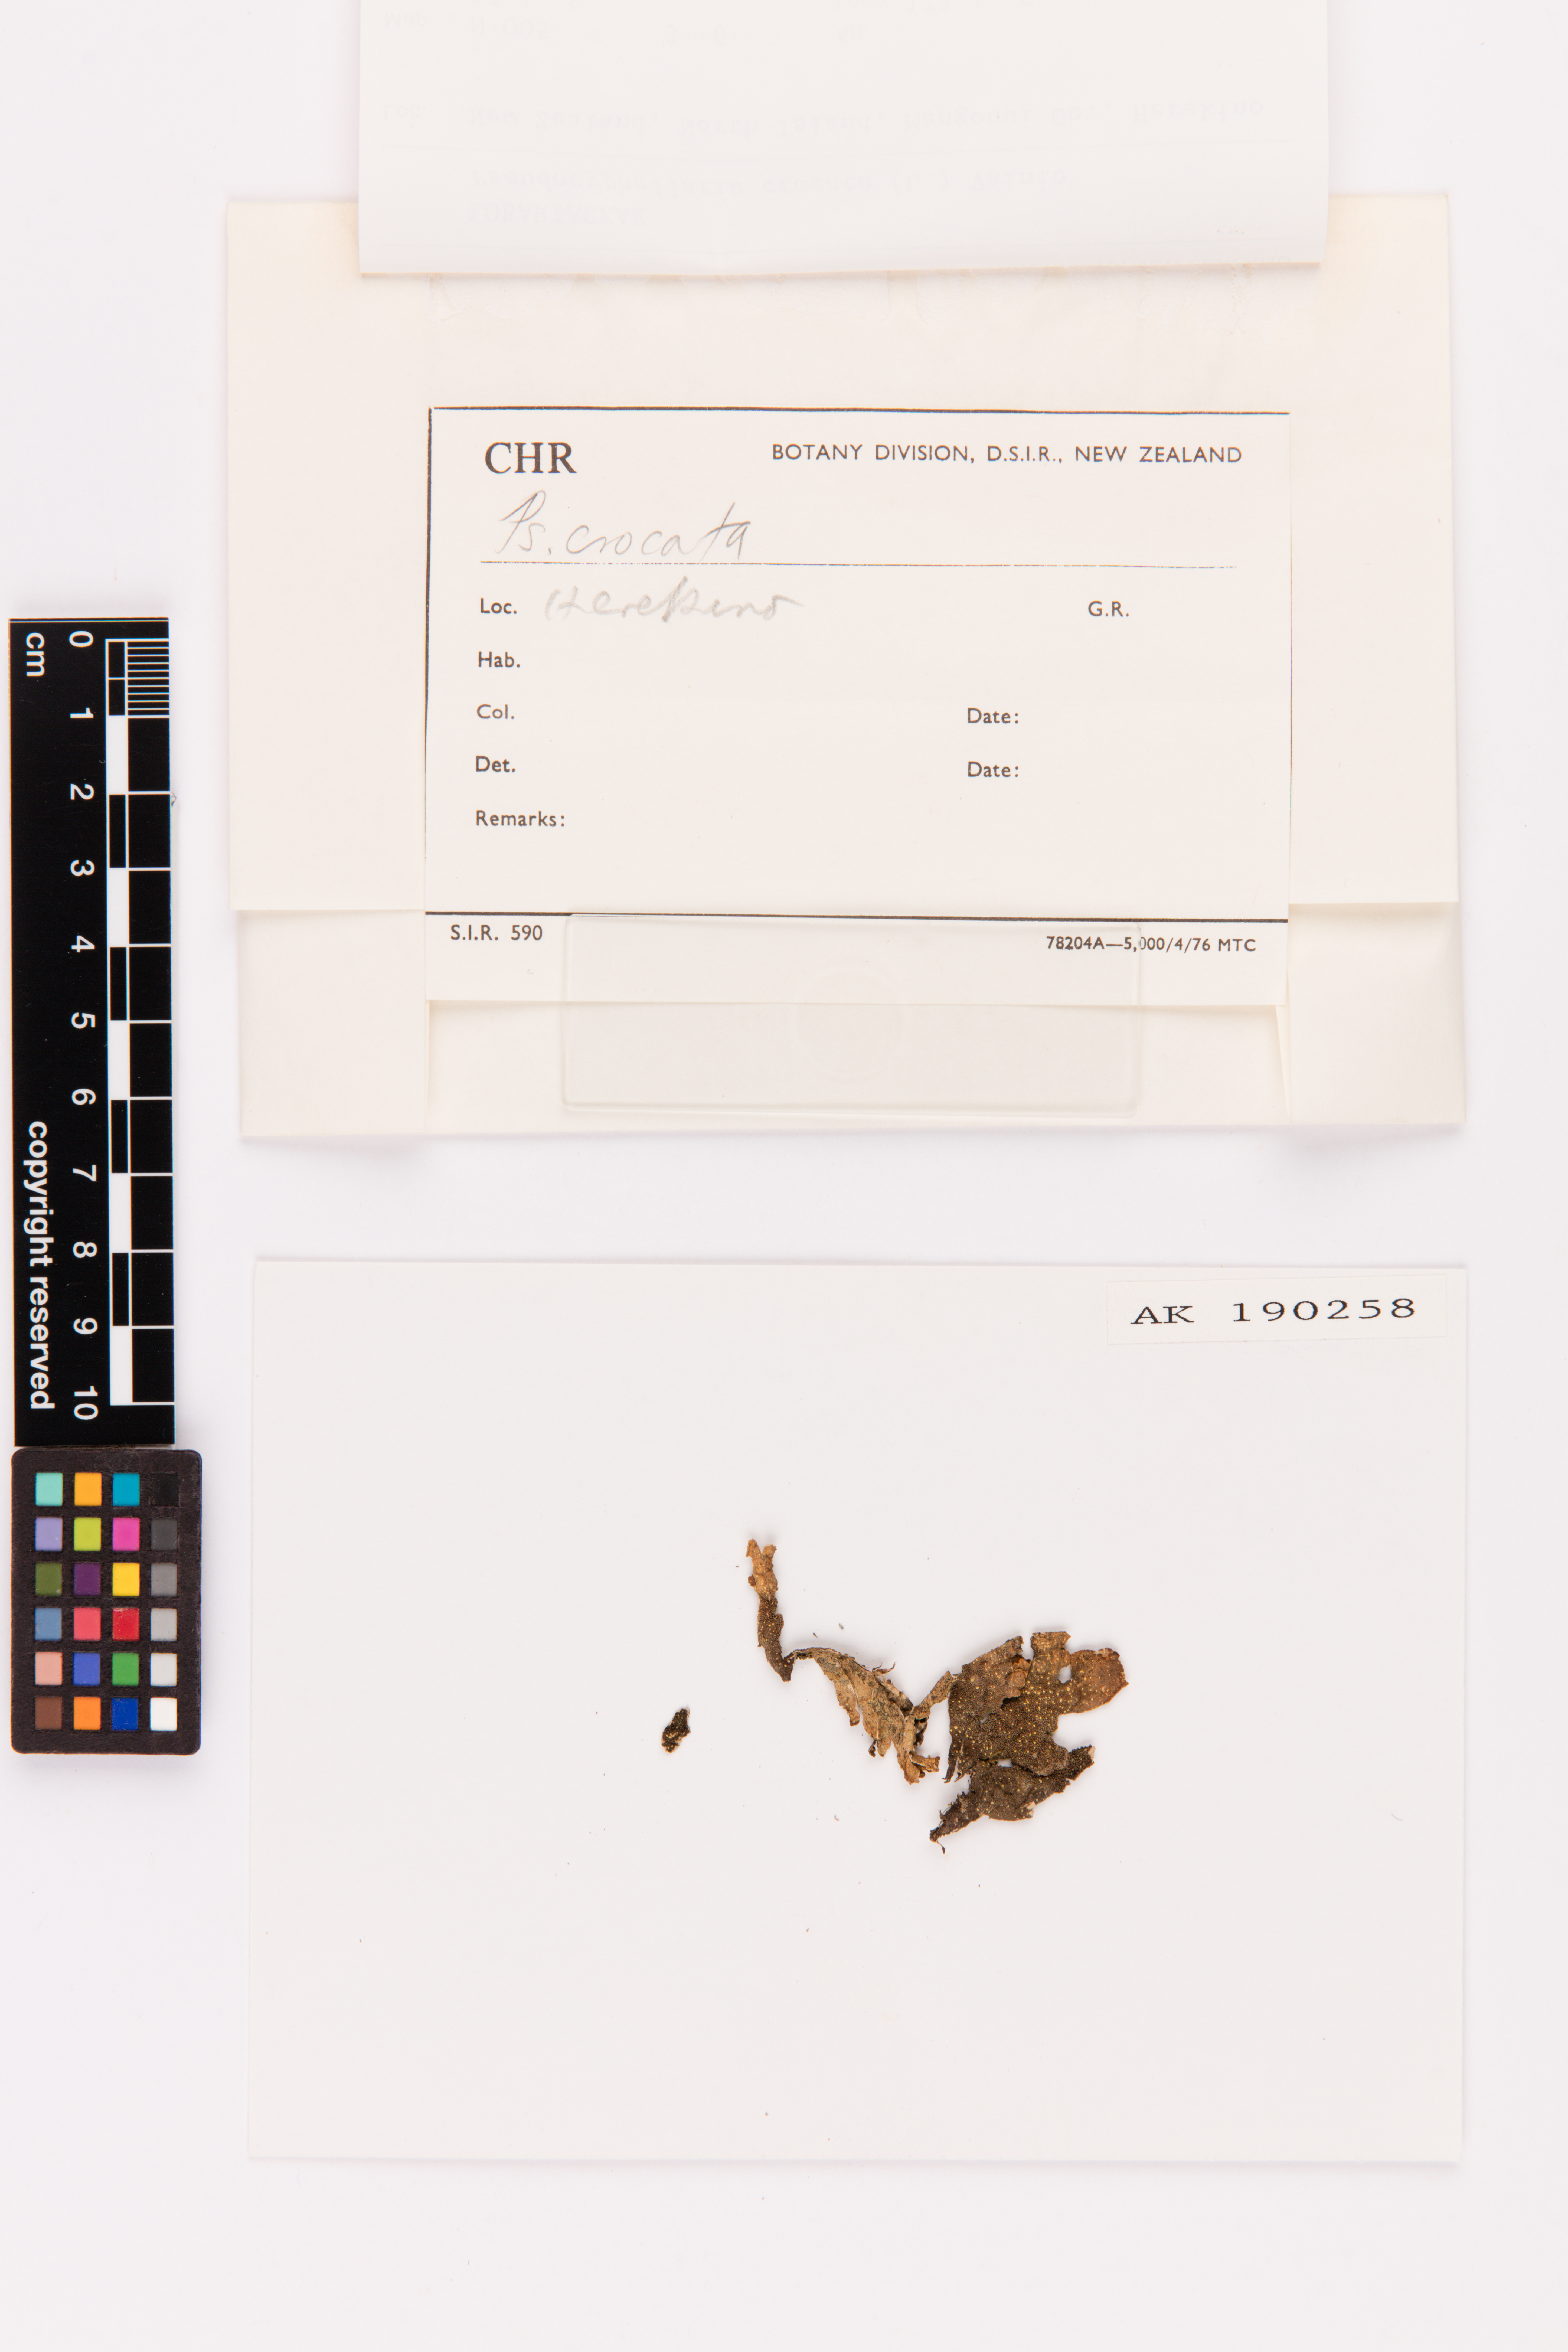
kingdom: Fungi
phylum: Ascomycota
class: Lecanoromycetes
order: Peltigerales
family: Lobariaceae
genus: Pseudocyphellaria
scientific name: Pseudocyphellaria crocata
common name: Golden specklebelly
